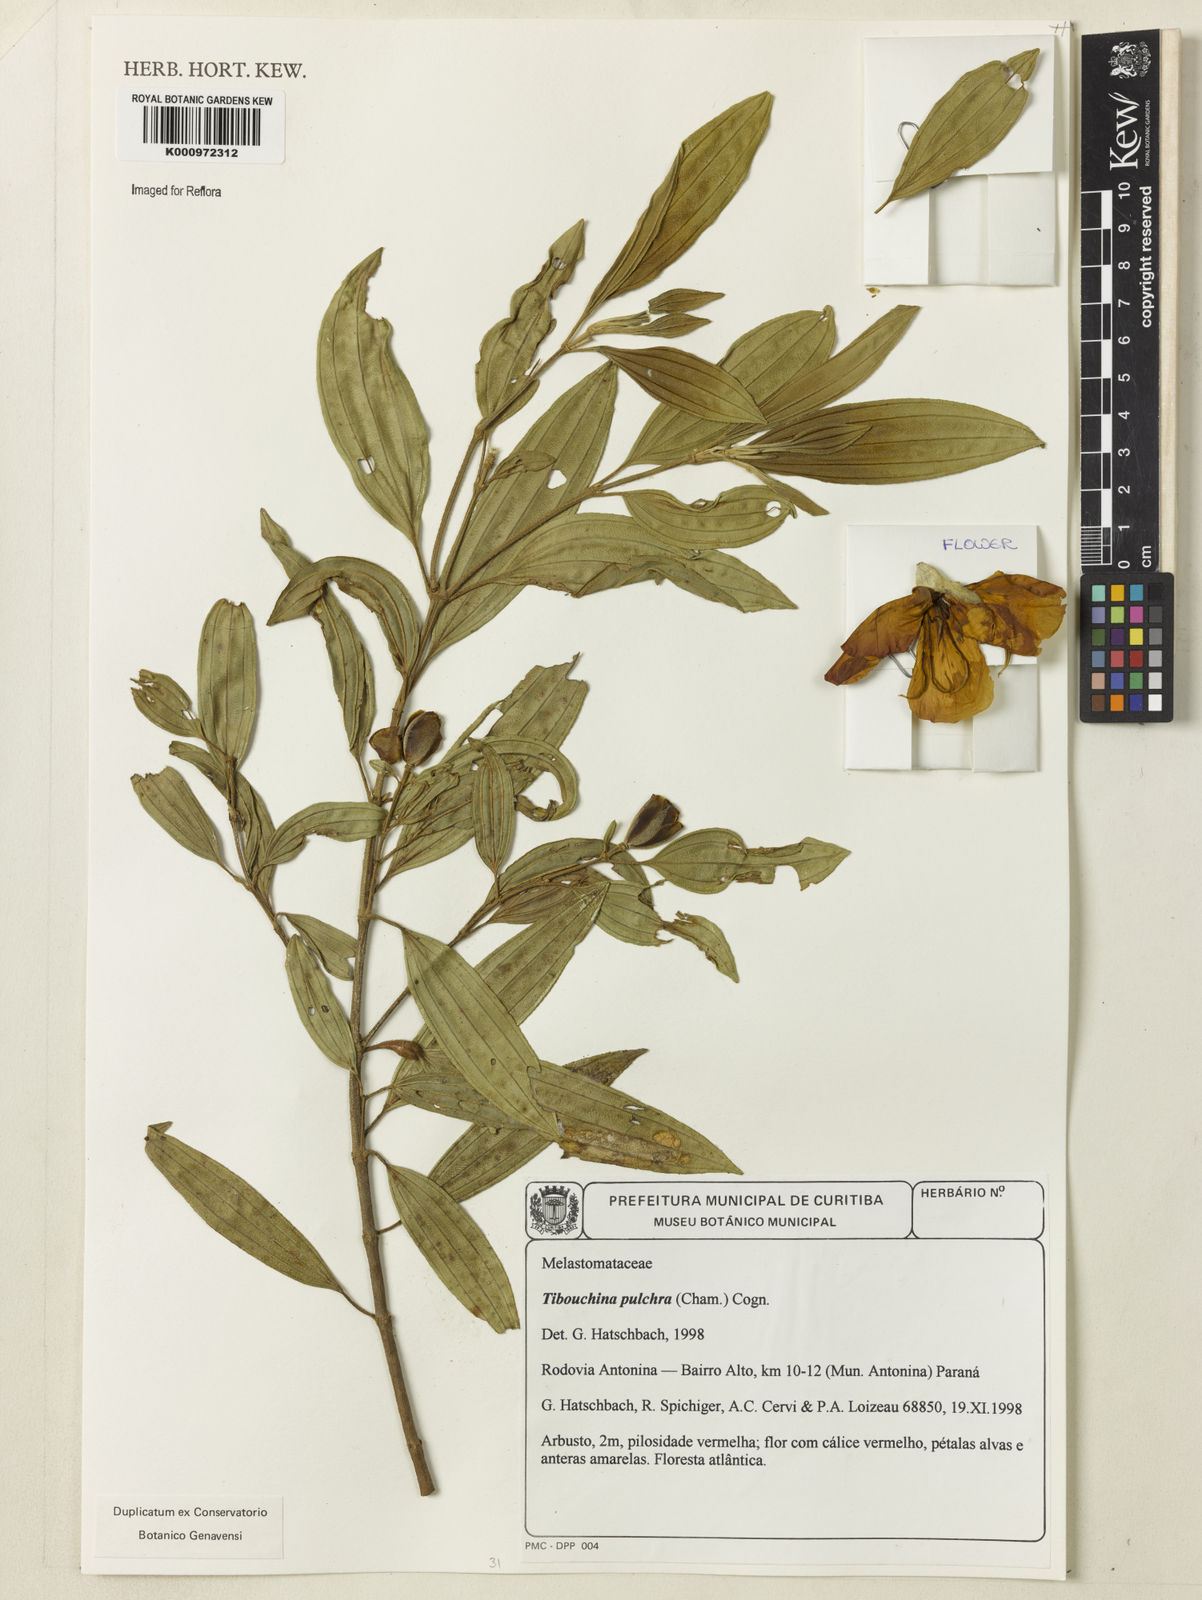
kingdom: Plantae
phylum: Tracheophyta
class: Magnoliopsida
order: Myrtales
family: Melastomataceae
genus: Pleroma
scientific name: Pleroma raddianum
